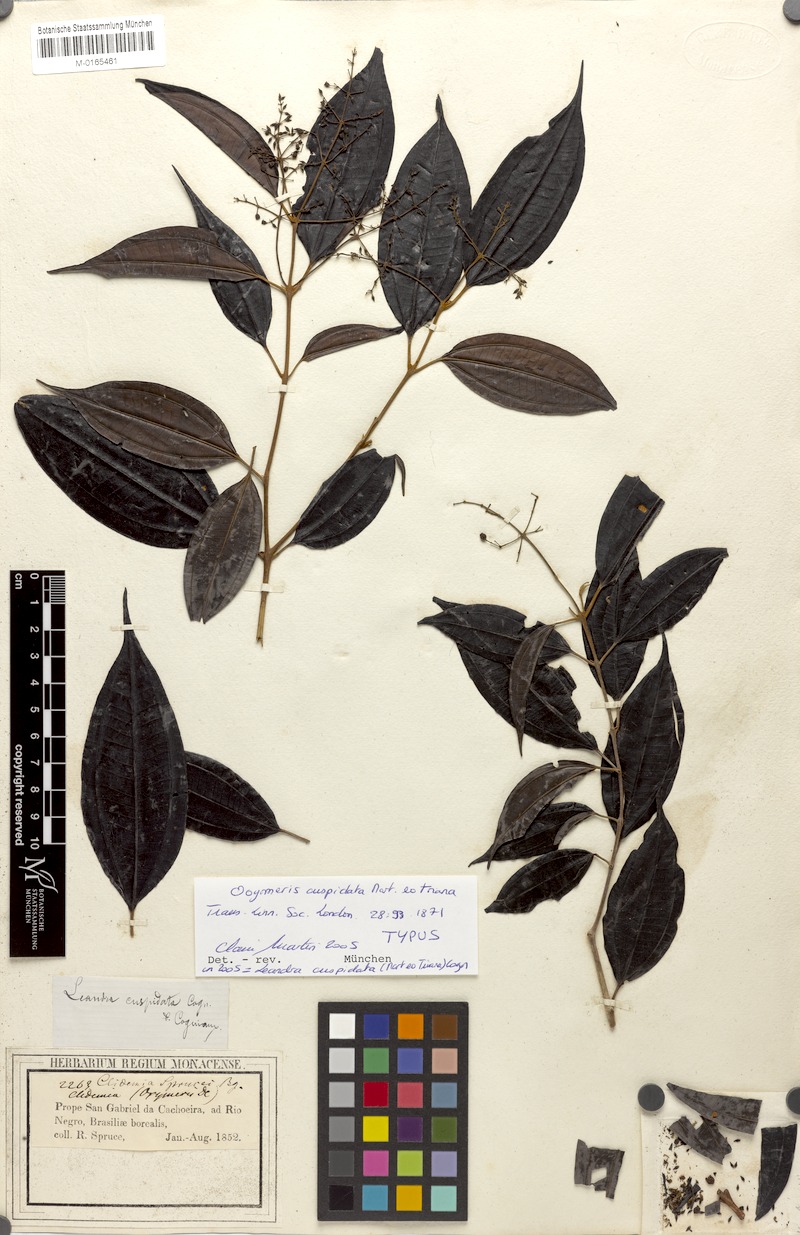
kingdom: Plantae
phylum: Tracheophyta
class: Magnoliopsida
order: Myrtales
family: Melastomataceae
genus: Miconia
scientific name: Miconia eugenioides
